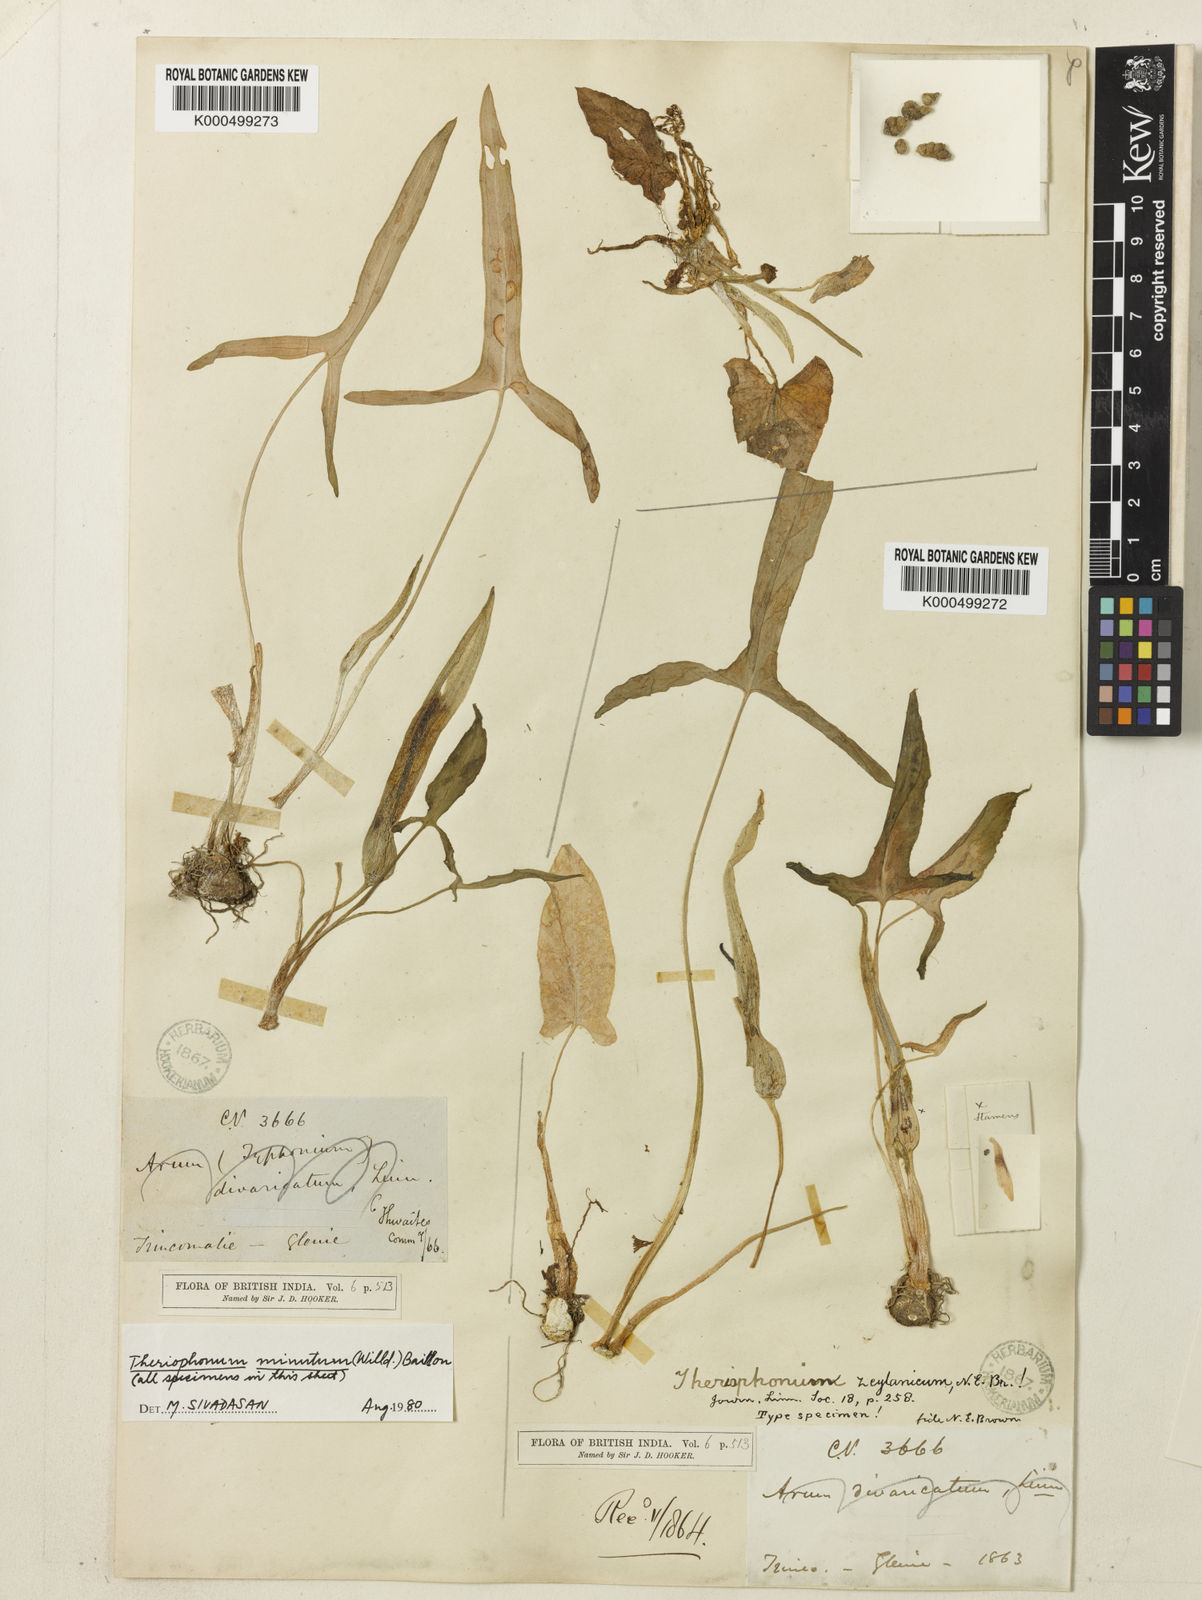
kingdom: Plantae
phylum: Tracheophyta
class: Liliopsida
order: Alismatales
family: Araceae
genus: Theriophonum
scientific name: Theriophonum minutum
